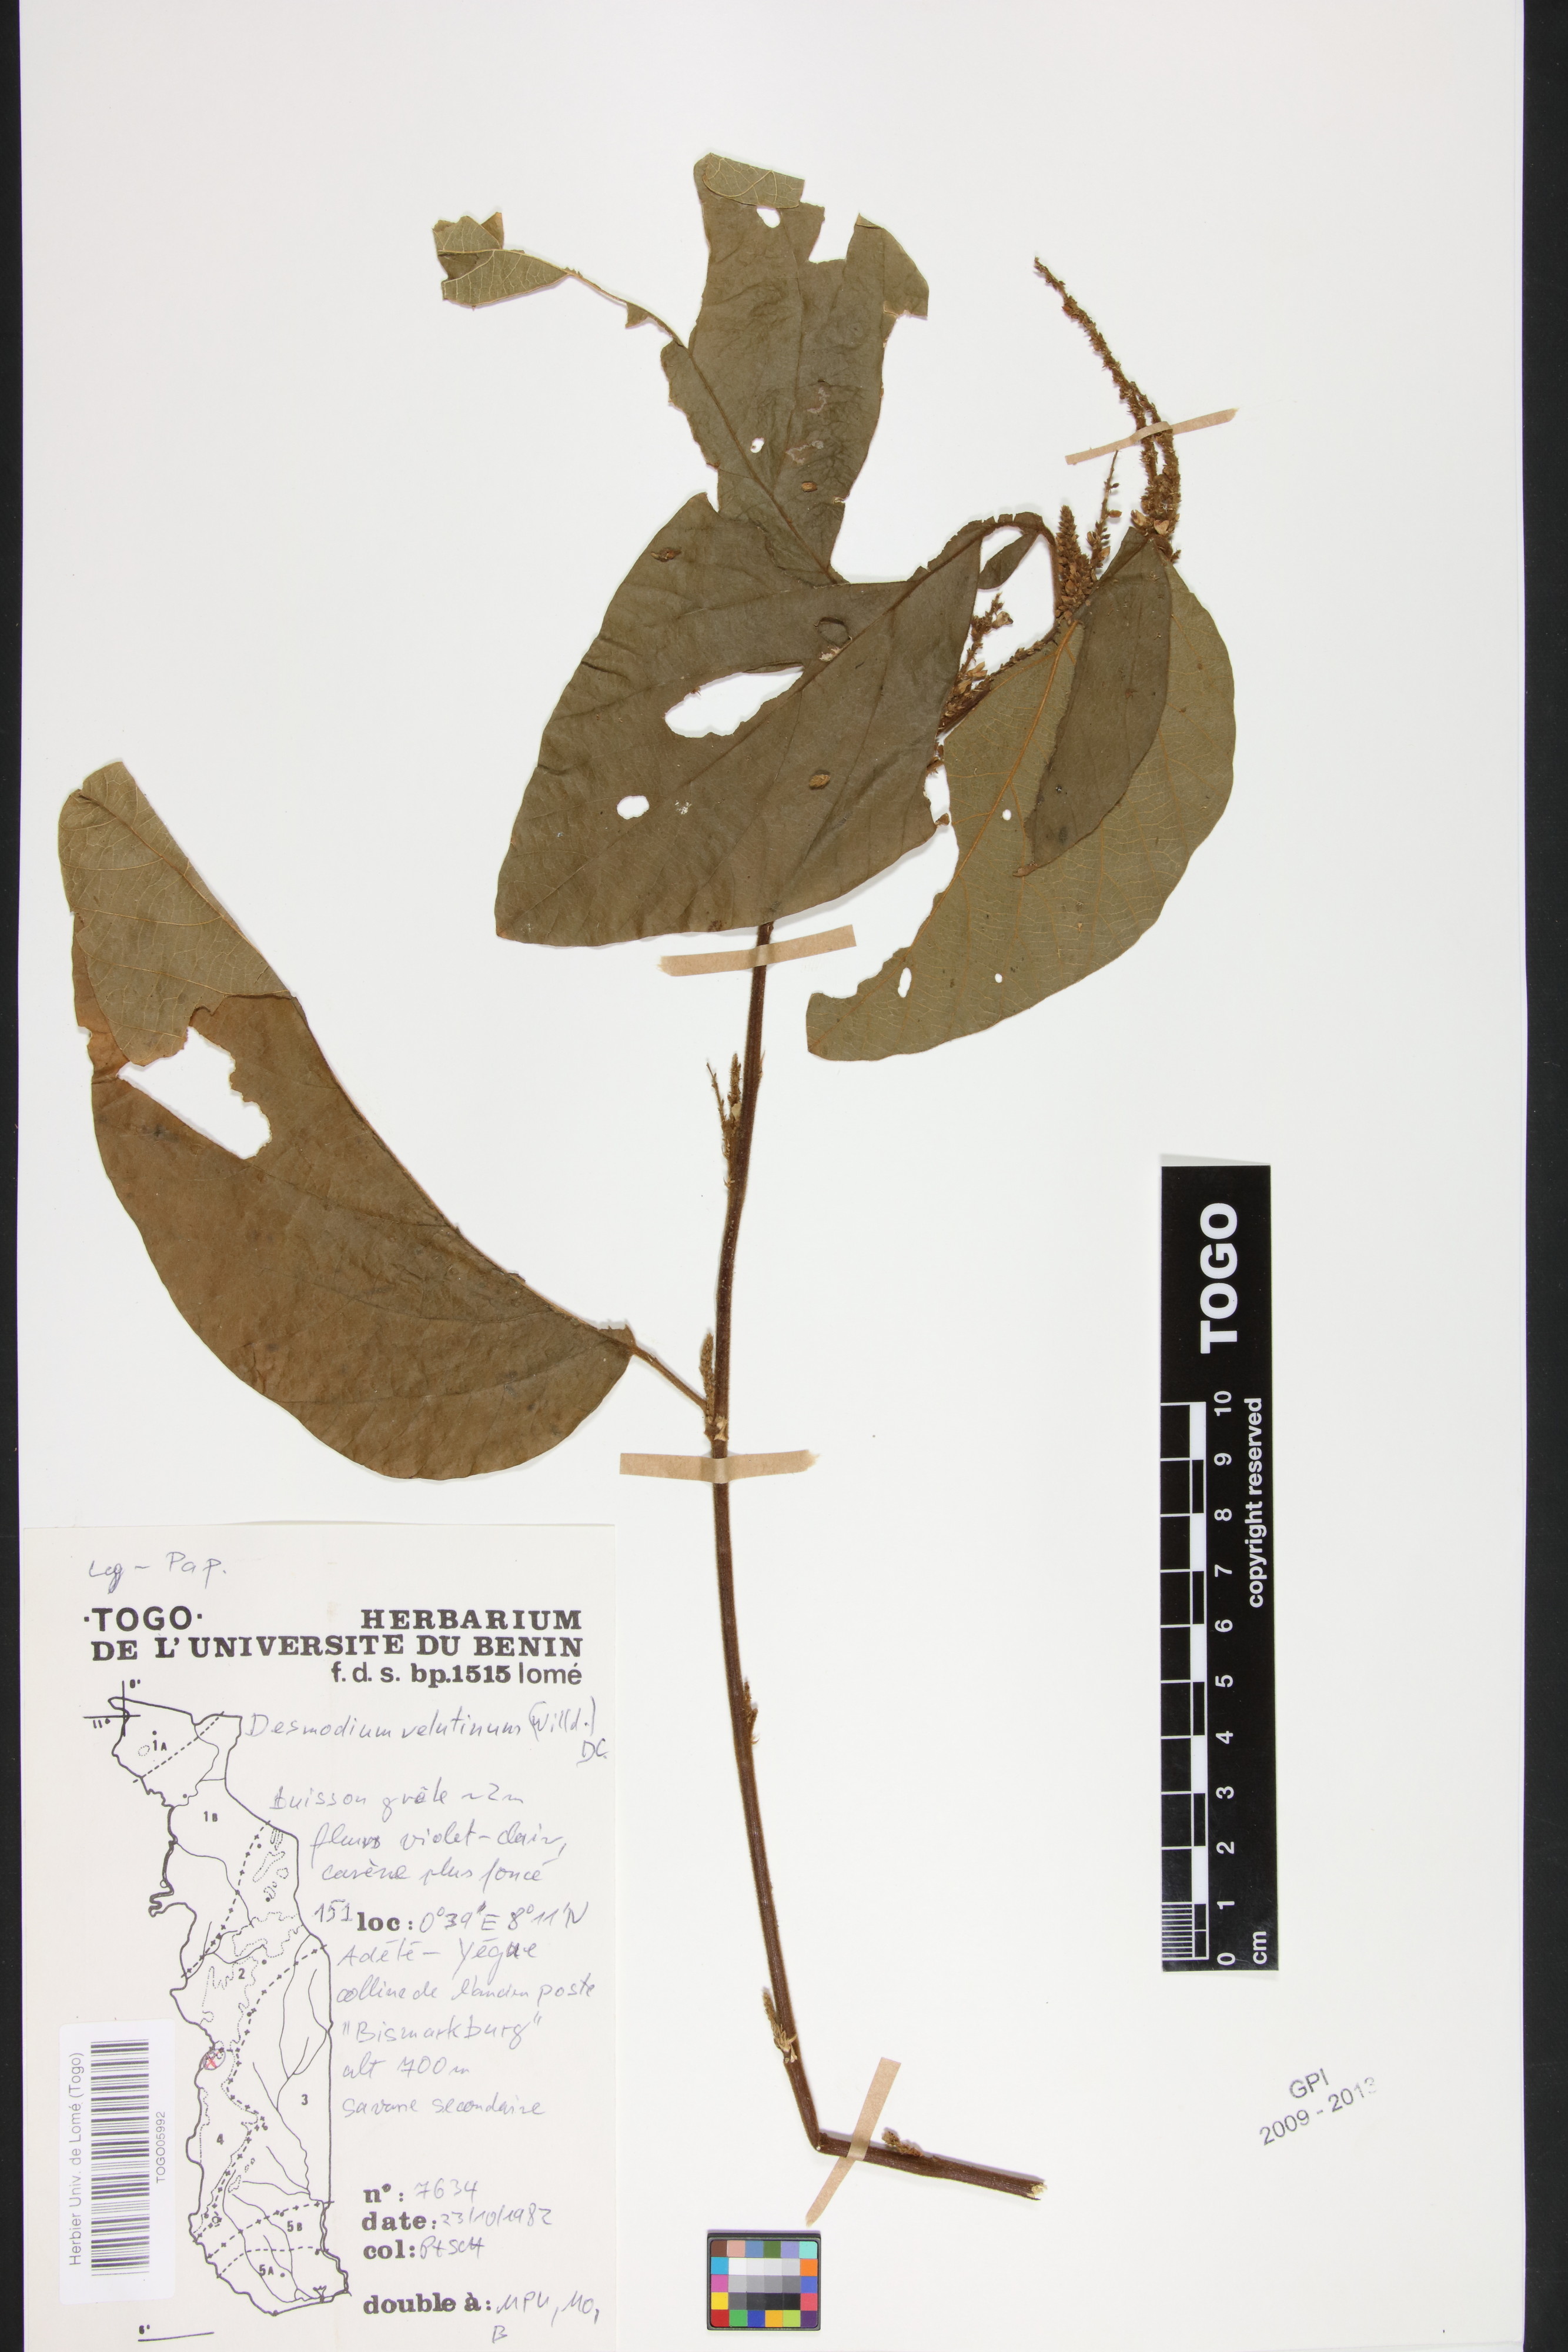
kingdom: Plantae
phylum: Tracheophyta
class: Magnoliopsida
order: Fabales
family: Fabaceae
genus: Polhillides
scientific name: Polhillides velutina
